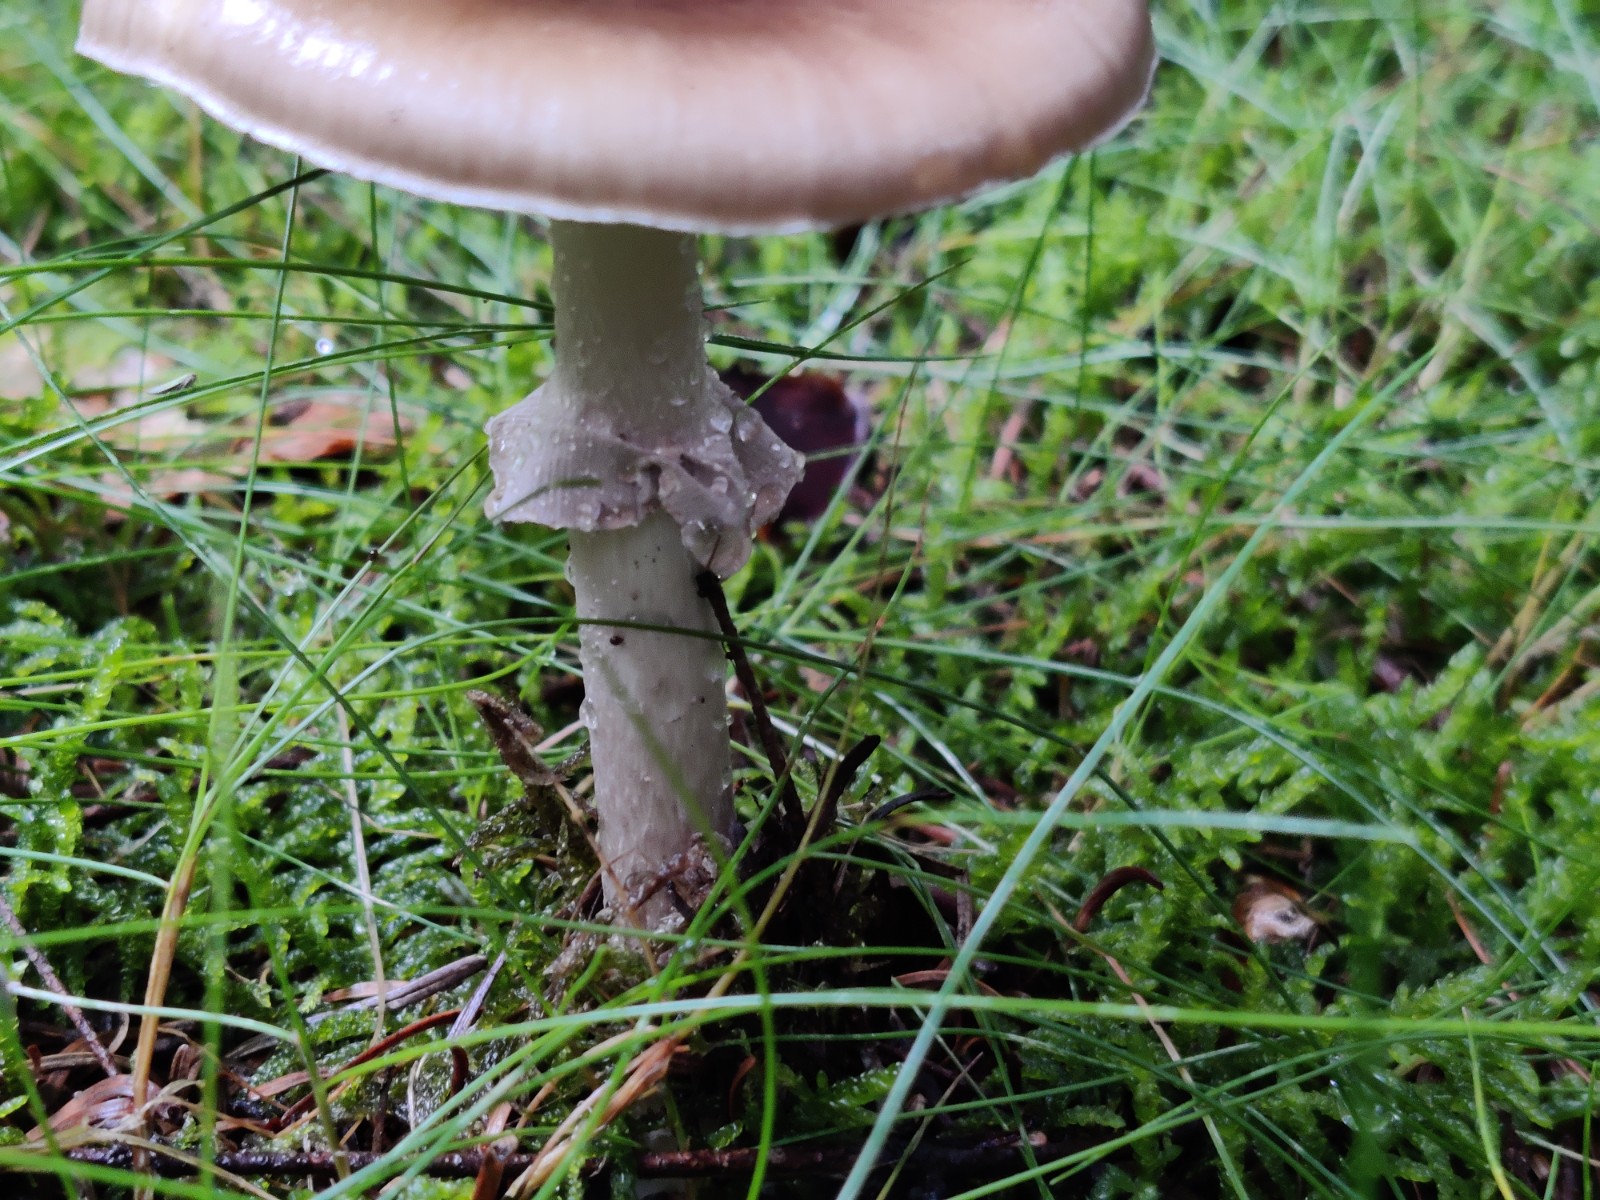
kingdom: Fungi
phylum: Basidiomycota
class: Agaricomycetes
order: Agaricales
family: Amanitaceae
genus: Amanita
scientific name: Amanita porphyria
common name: porfyr-fluesvamp
